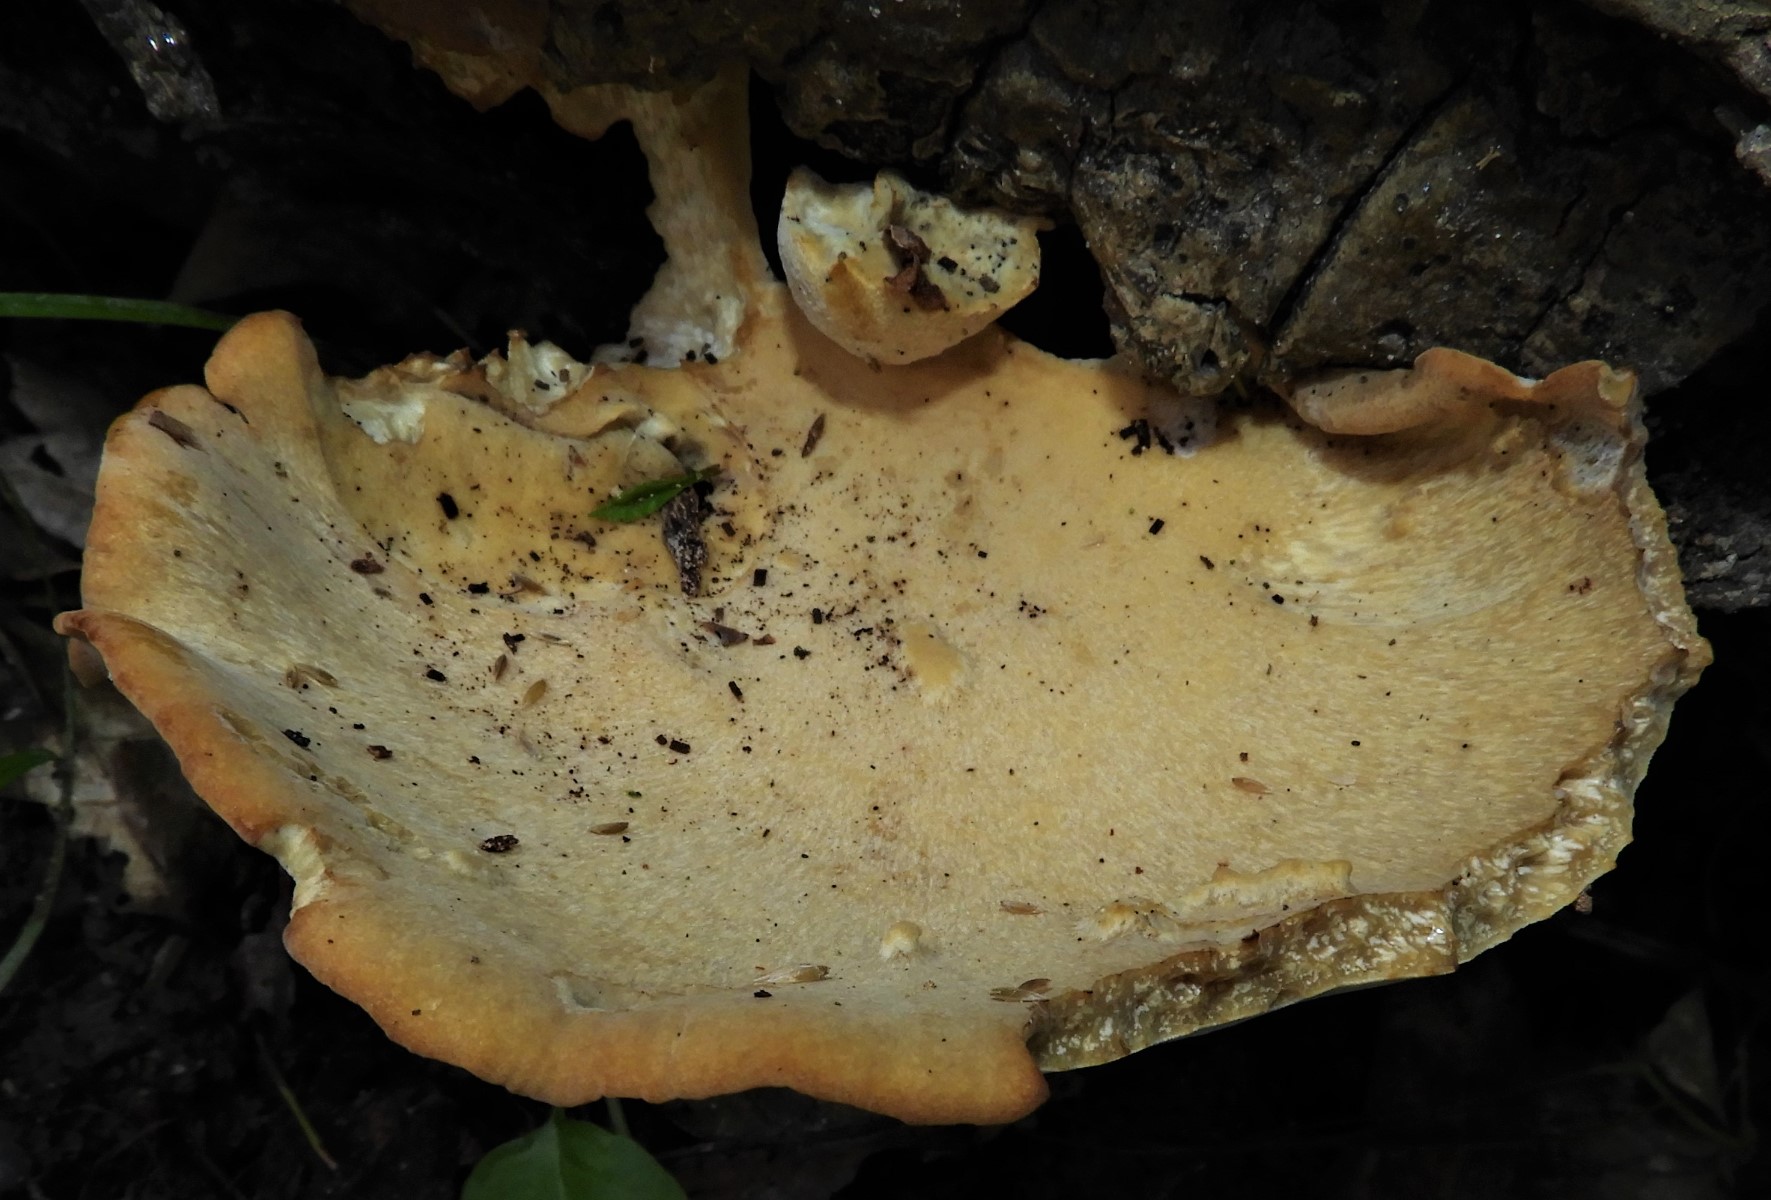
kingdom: Fungi
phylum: Basidiomycota
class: Agaricomycetes
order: Polyporales
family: Polyporaceae
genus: Cerioporus
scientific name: Cerioporus varius
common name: foranderlig stilkporesvamp
